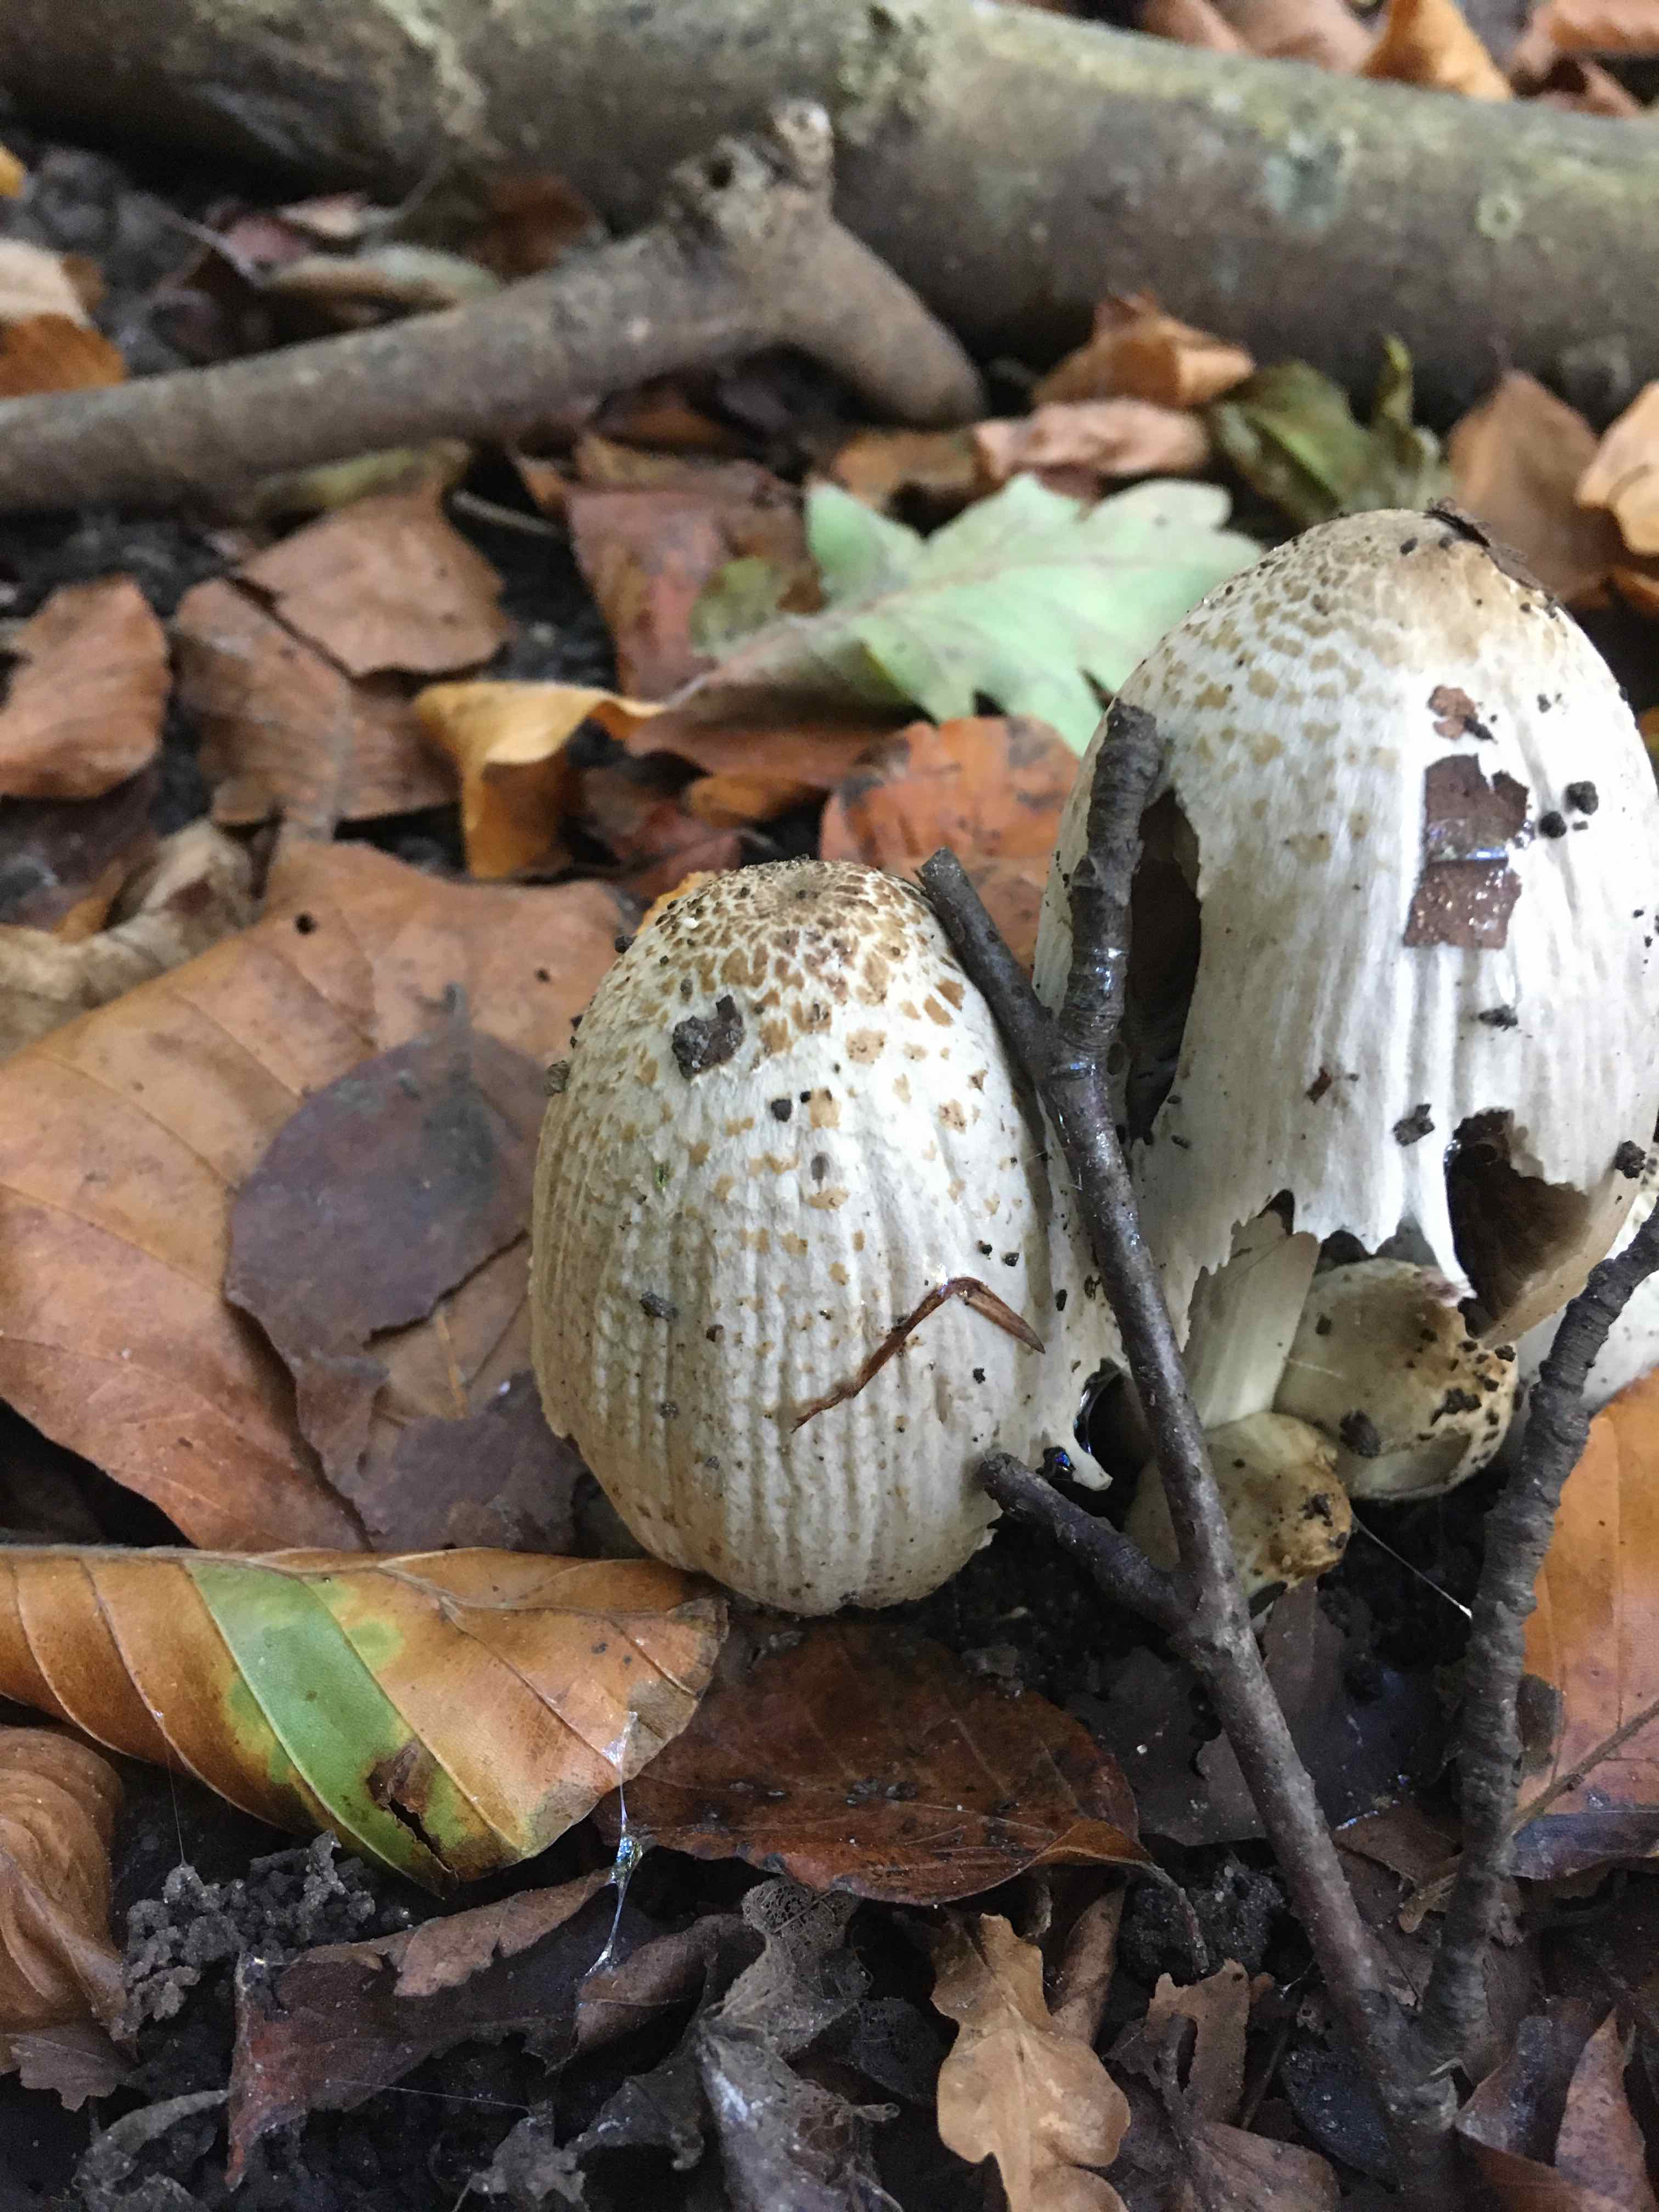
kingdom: Fungi
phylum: Basidiomycota
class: Agaricomycetes
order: Agaricales
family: Psathyrellaceae
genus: Coprinopsis
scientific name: Coprinopsis romagnesiana
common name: brunskællet blækhat
